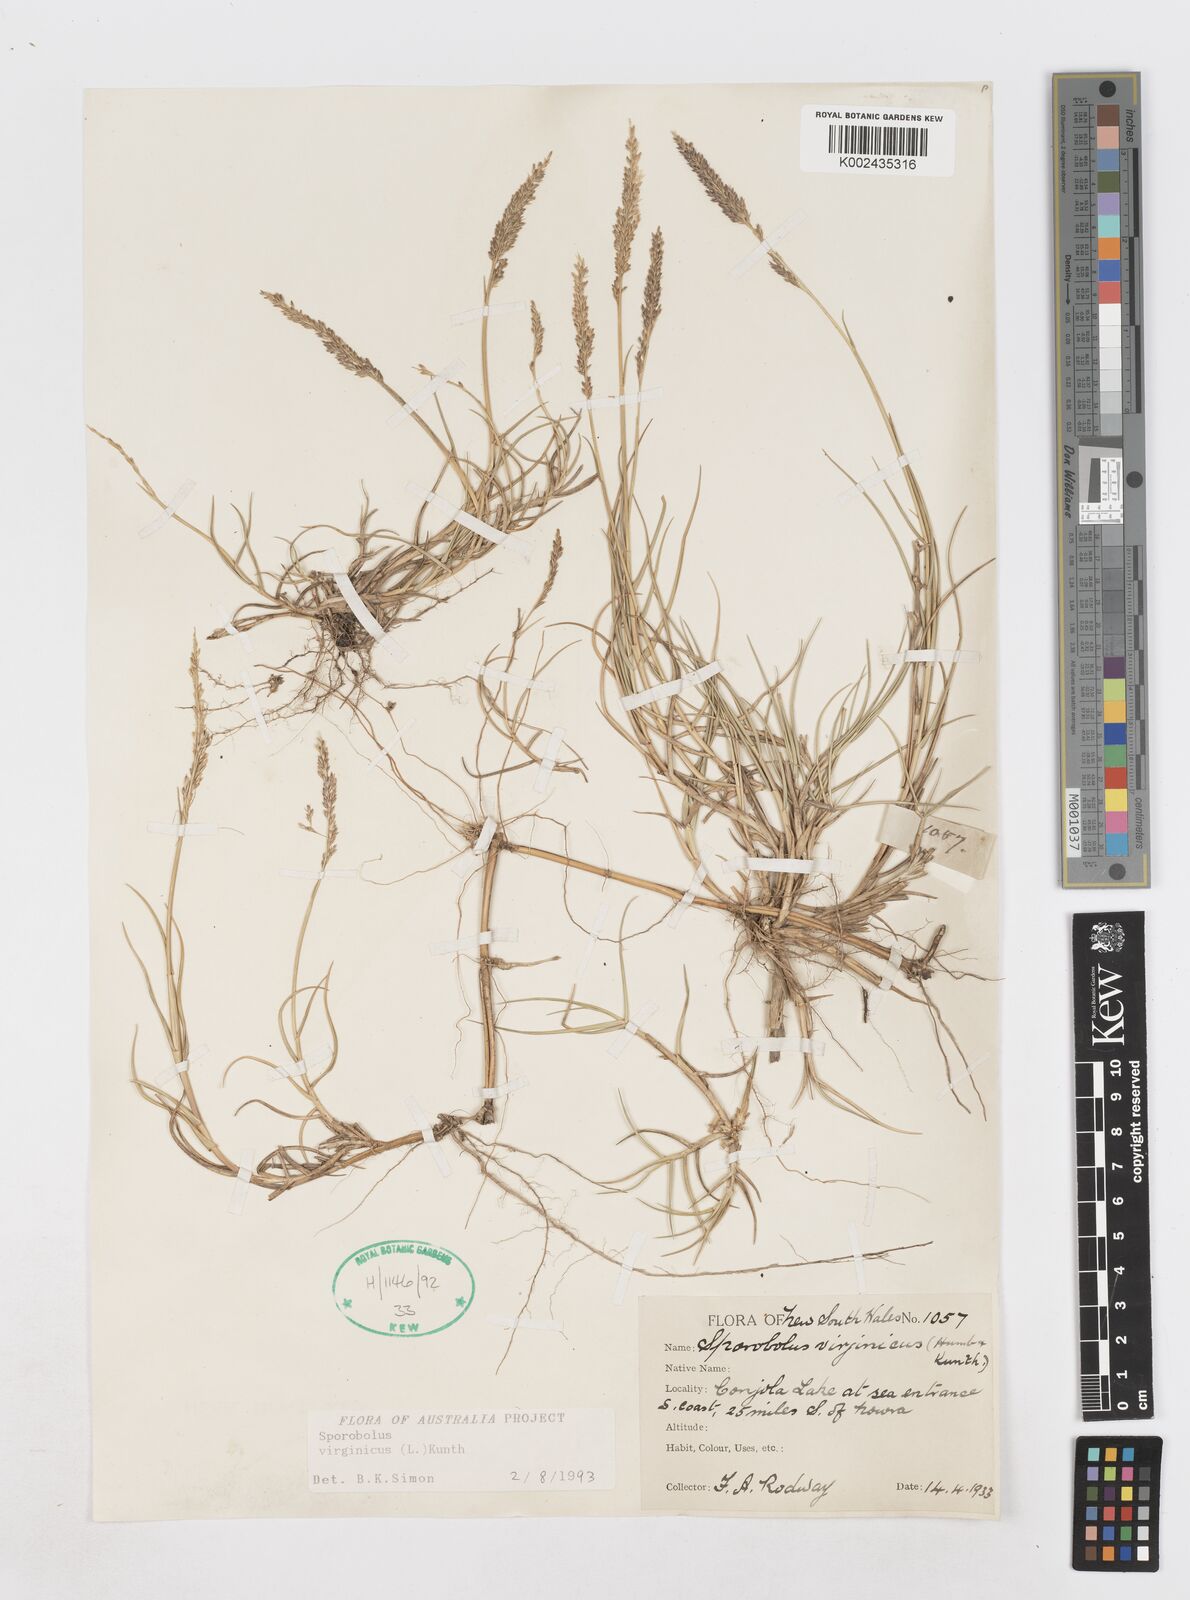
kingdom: Plantae
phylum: Tracheophyta
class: Liliopsida
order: Poales
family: Poaceae
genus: Sporobolus
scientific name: Sporobolus virginicus
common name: Beach dropseed
